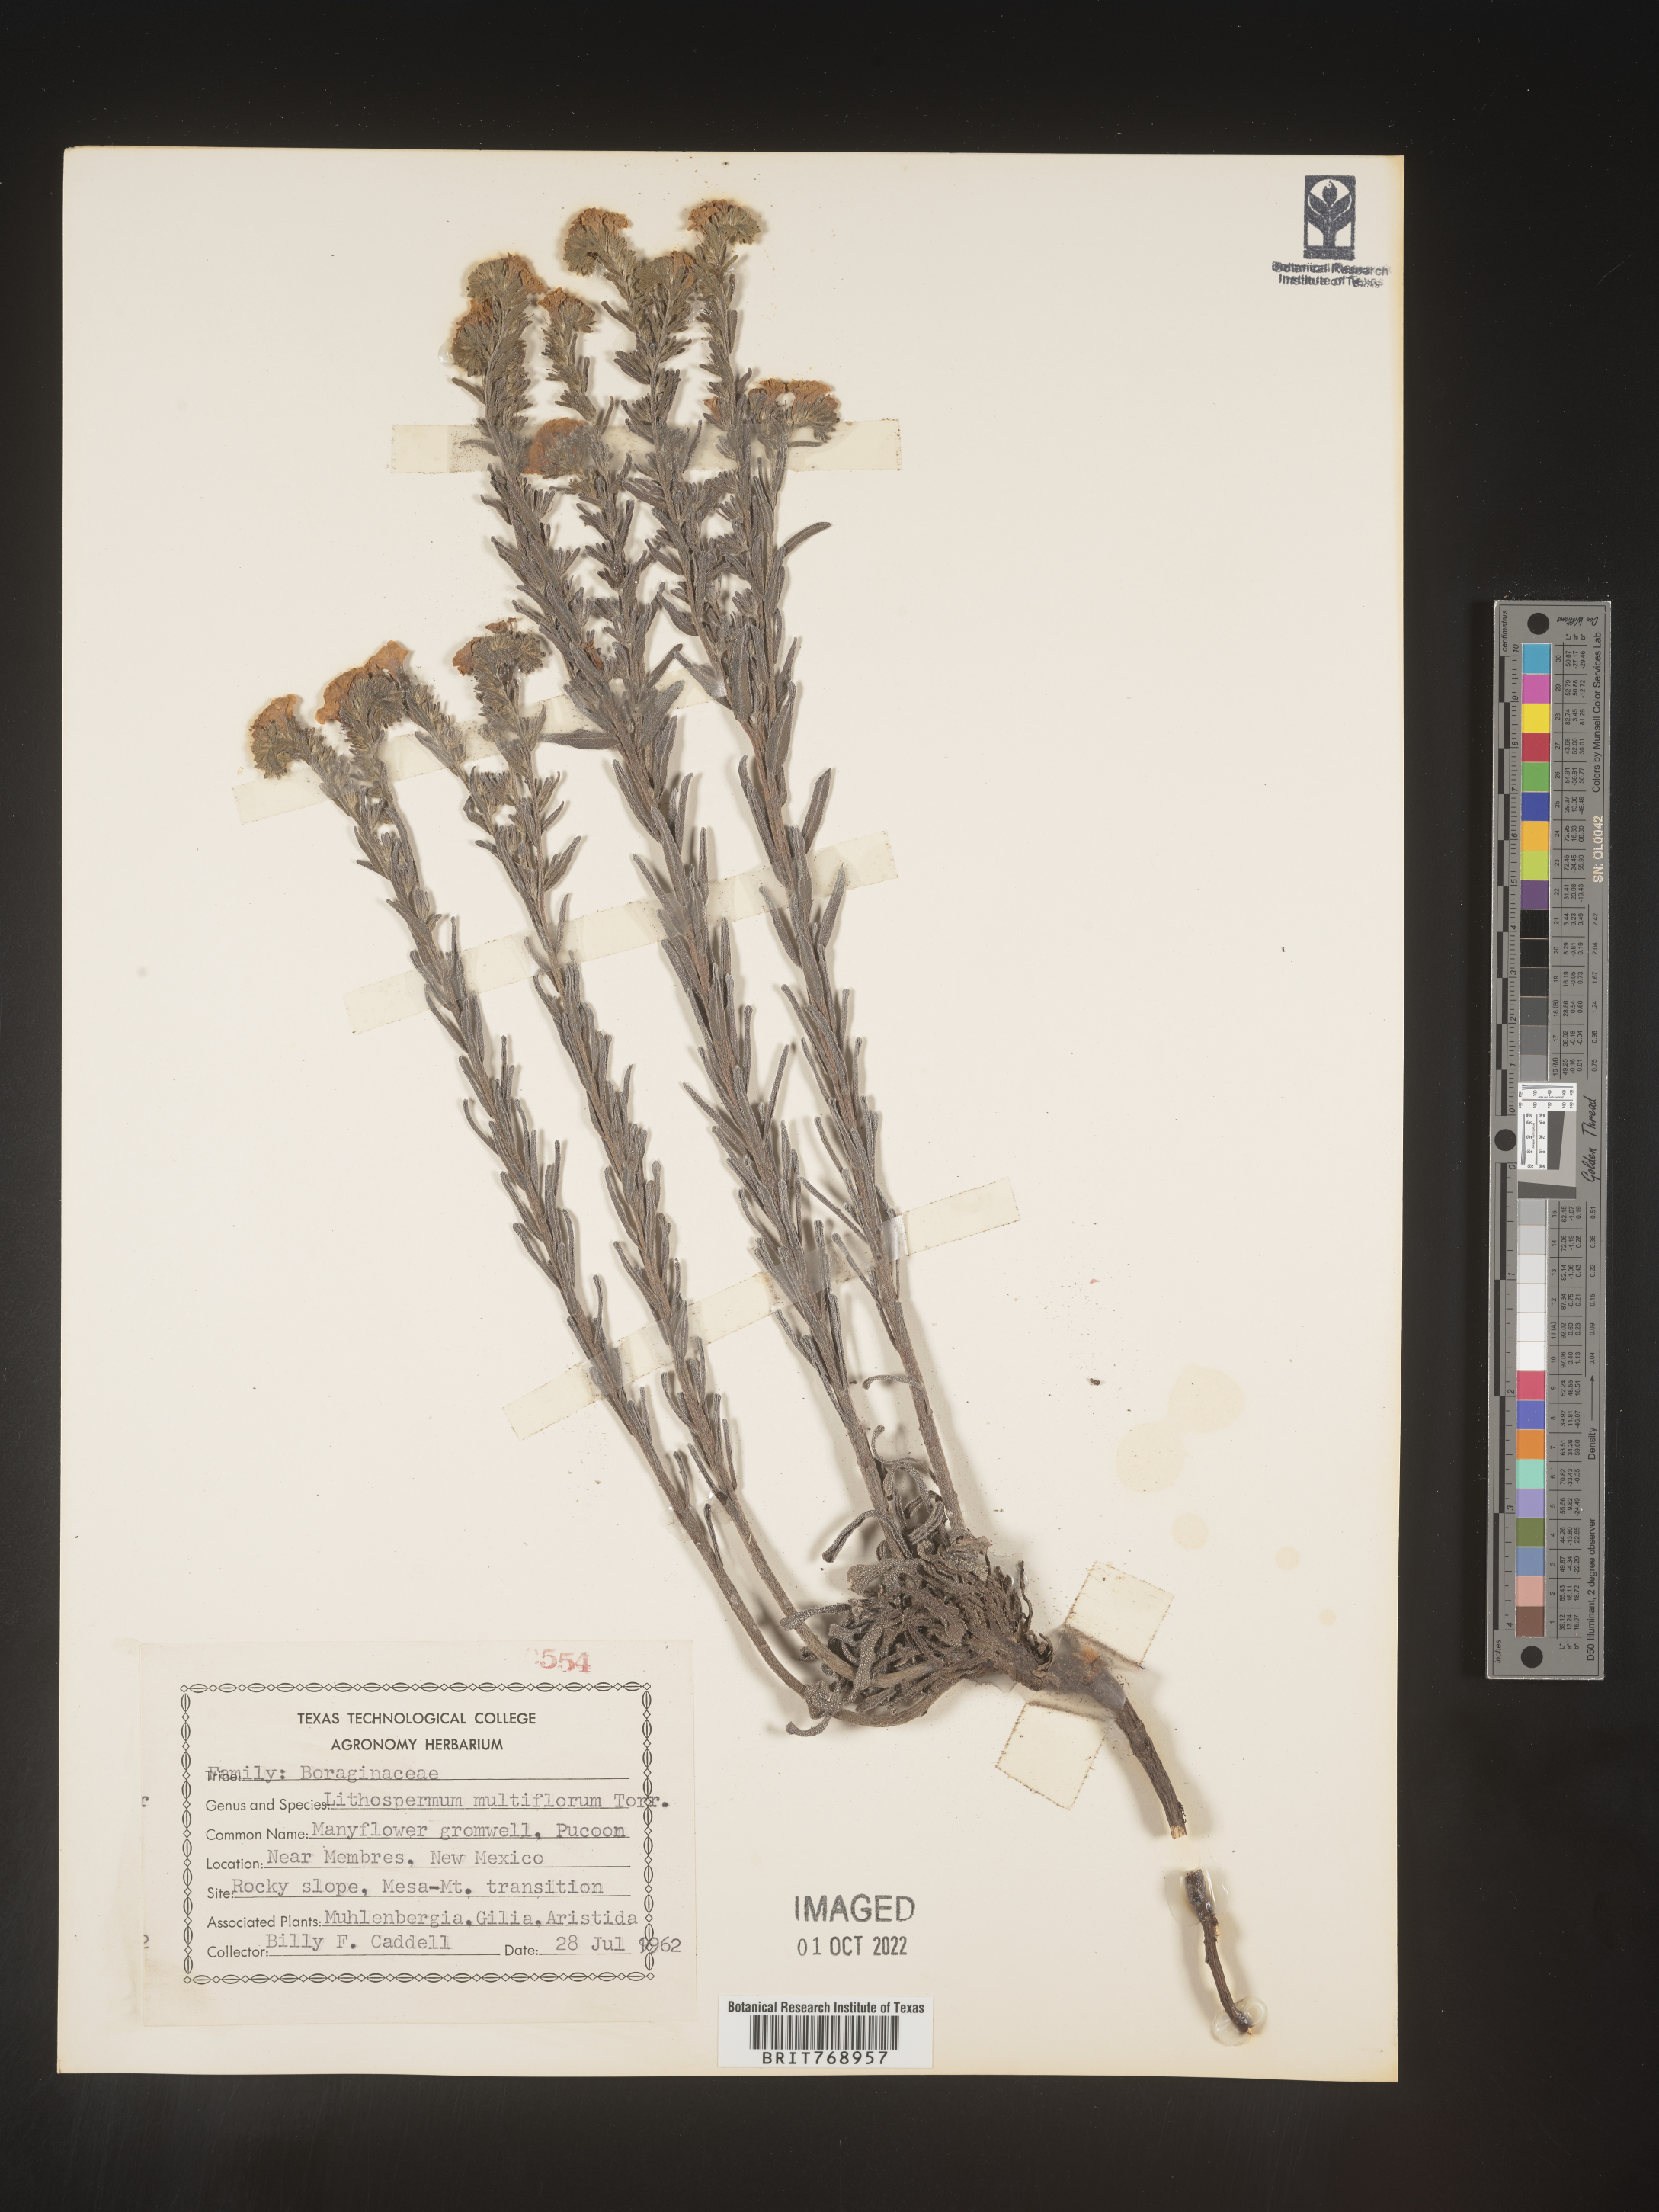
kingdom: Plantae
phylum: Tracheophyta
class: Magnoliopsida
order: Boraginales
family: Boraginaceae
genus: Lithospermum
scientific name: Lithospermum multiflorum
